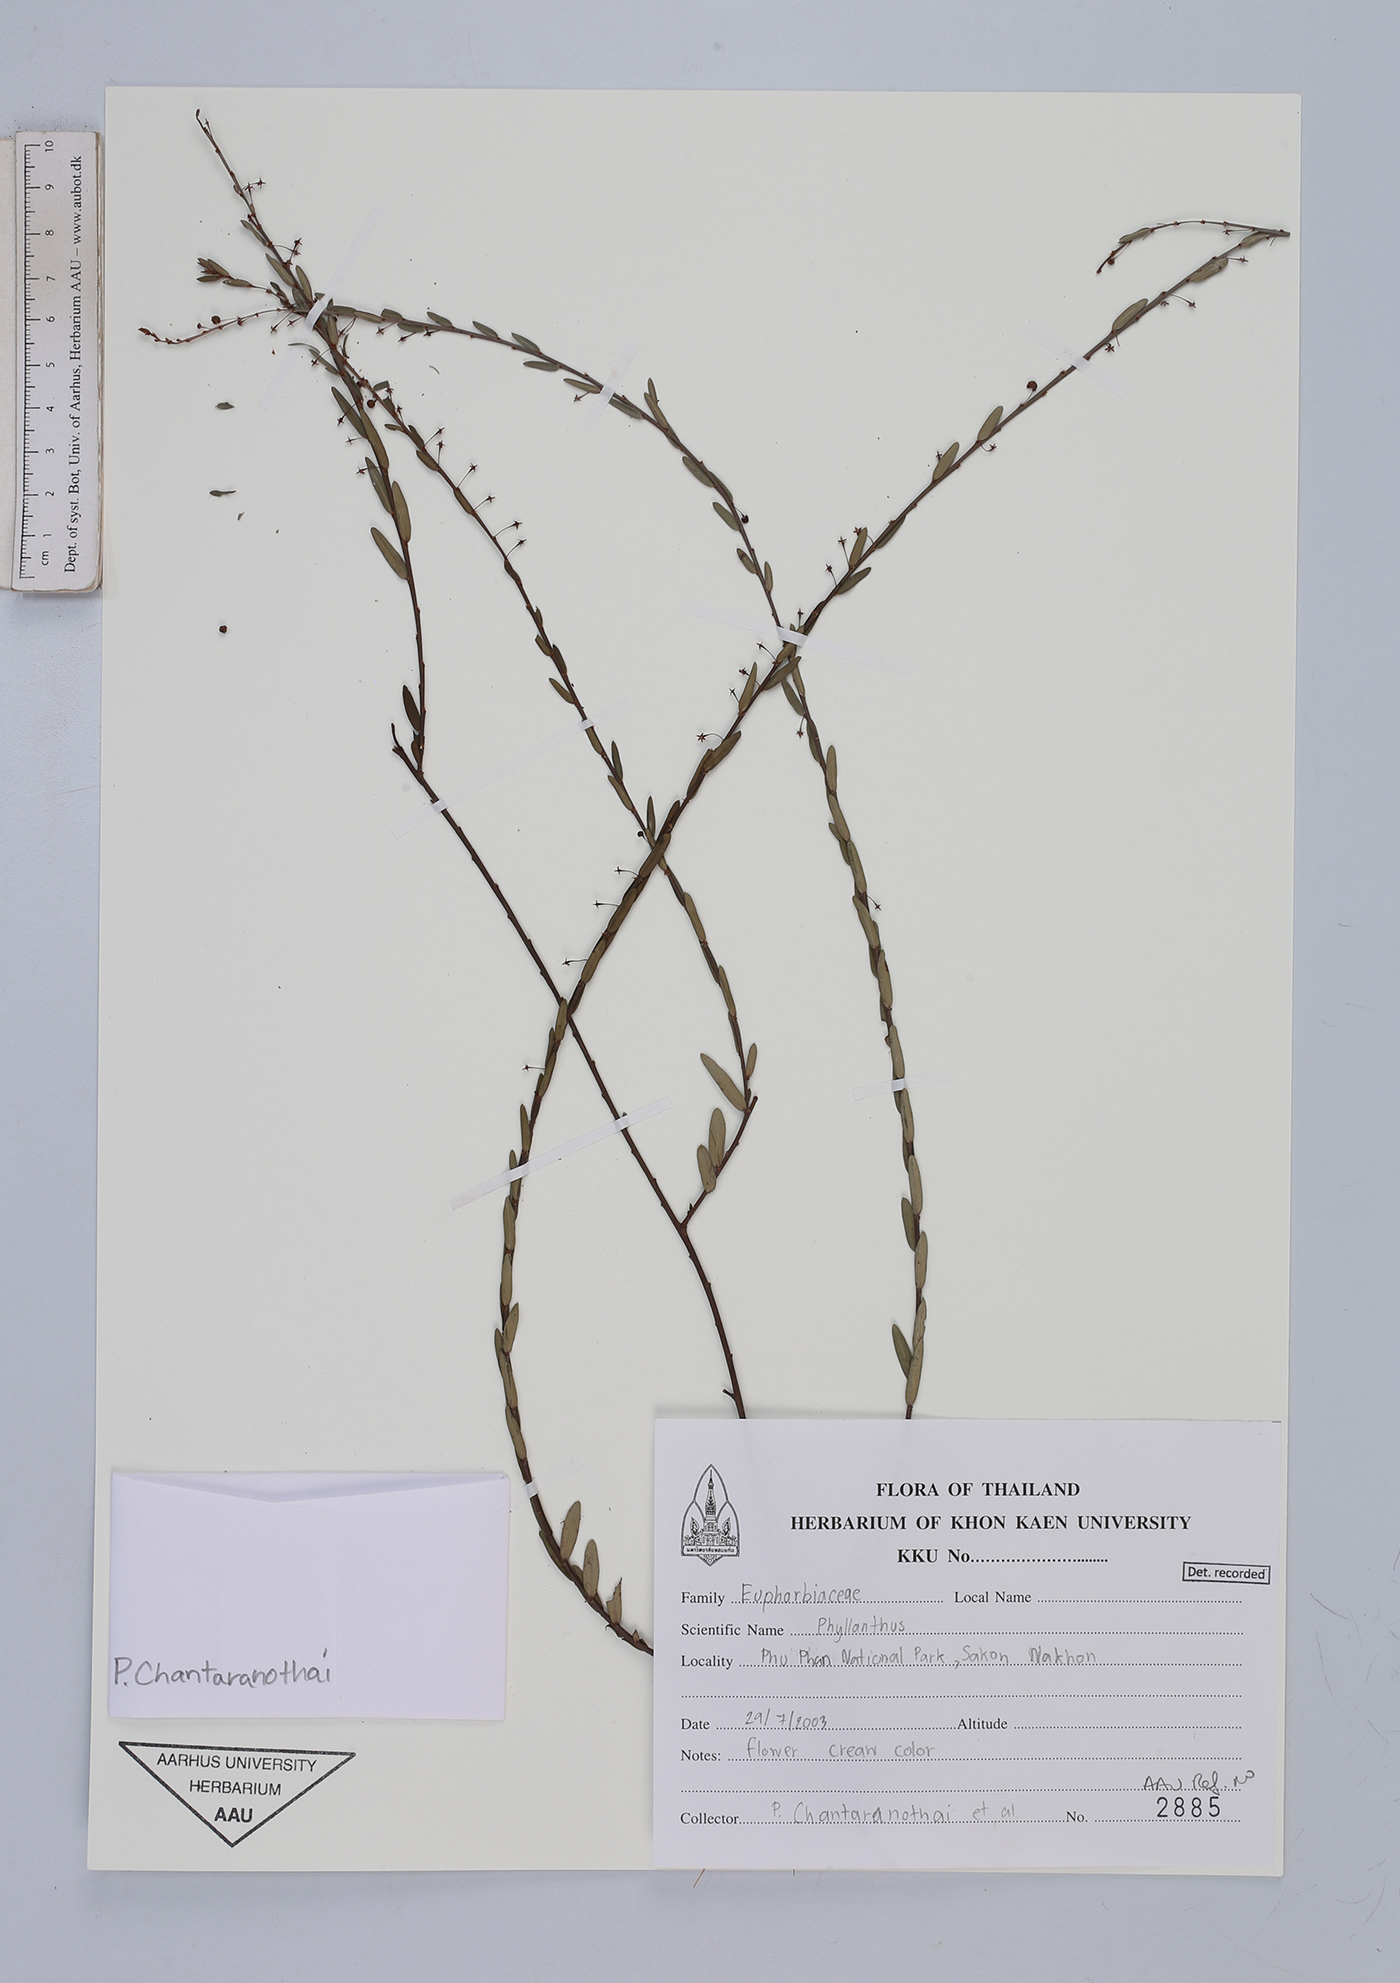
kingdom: Plantae
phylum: Tracheophyta
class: Magnoliopsida
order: Malpighiales
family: Euphorbiaceae
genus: Phyllanthos
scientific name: Phyllanthos
